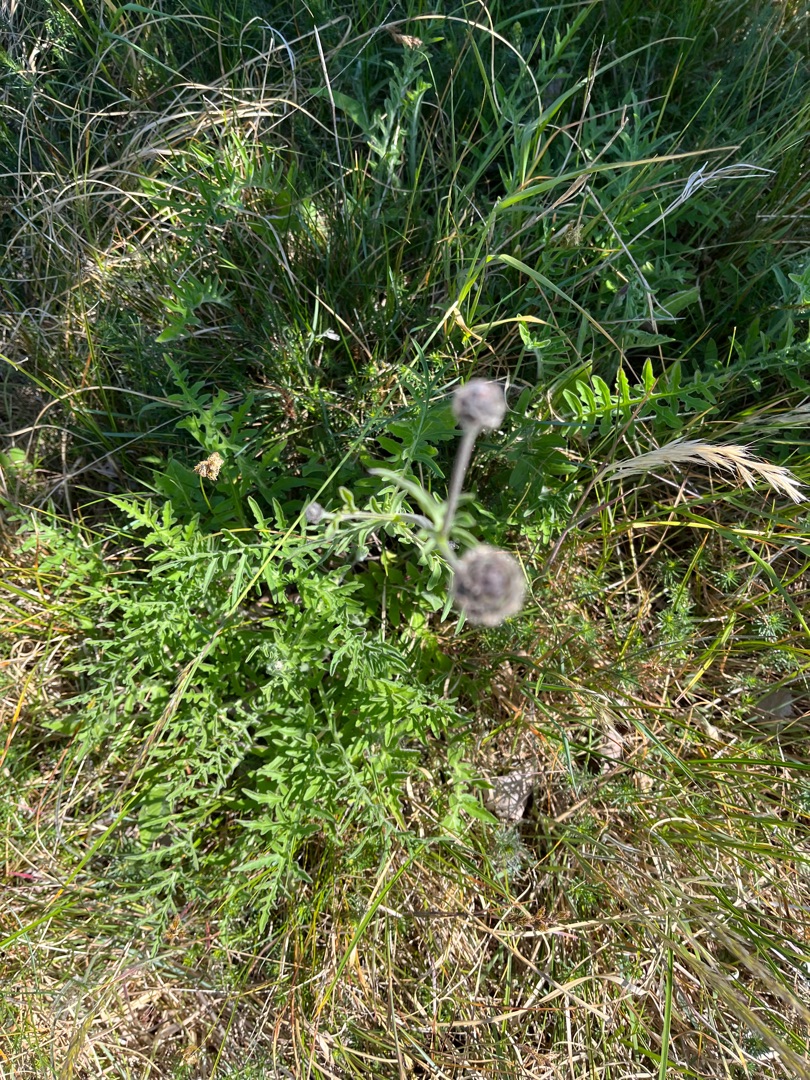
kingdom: Plantae
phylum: Tracheophyta
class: Magnoliopsida
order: Asterales
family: Asteraceae
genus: Centaurea
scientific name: Centaurea scabiosa
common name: Stor knopurt
